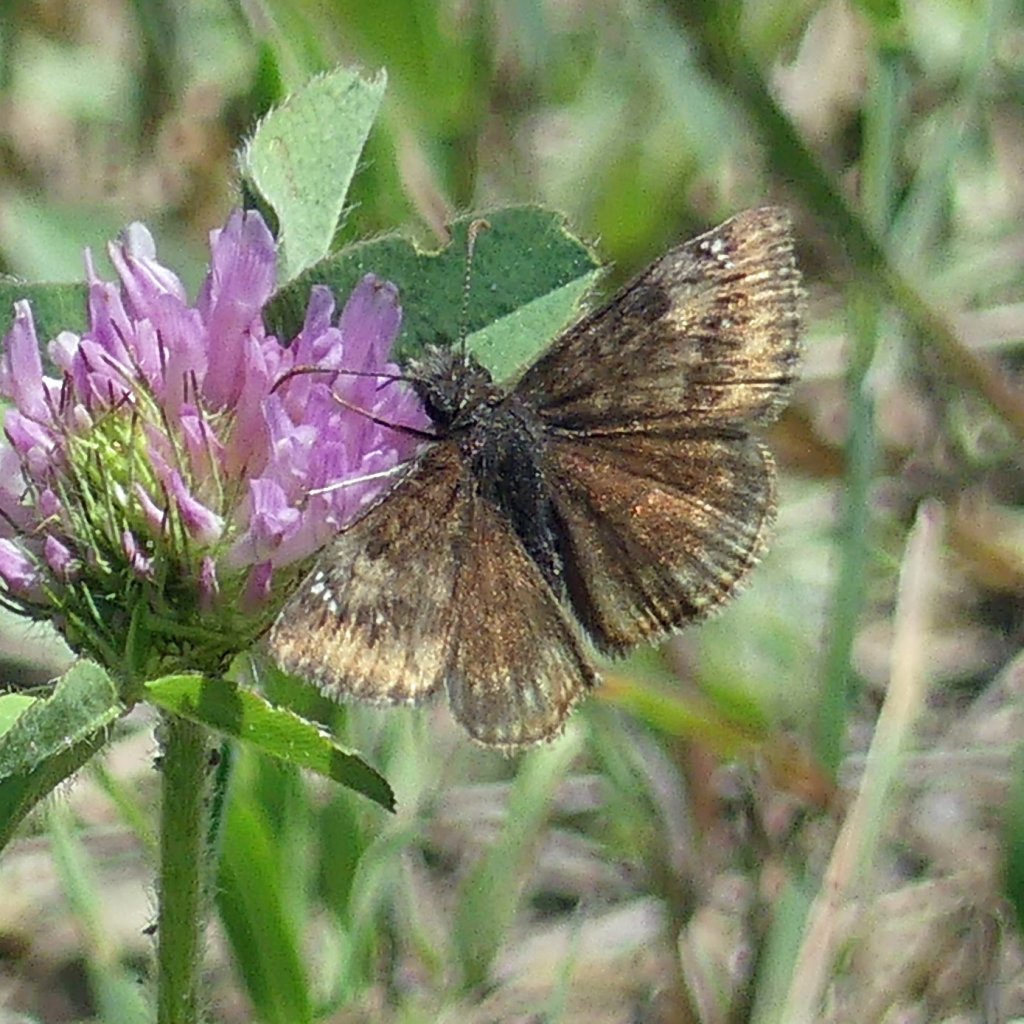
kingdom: Animalia
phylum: Arthropoda
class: Insecta
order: Lepidoptera
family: Hesperiidae
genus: Gesta
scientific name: Gesta
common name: Wild Indigo Duskywing
